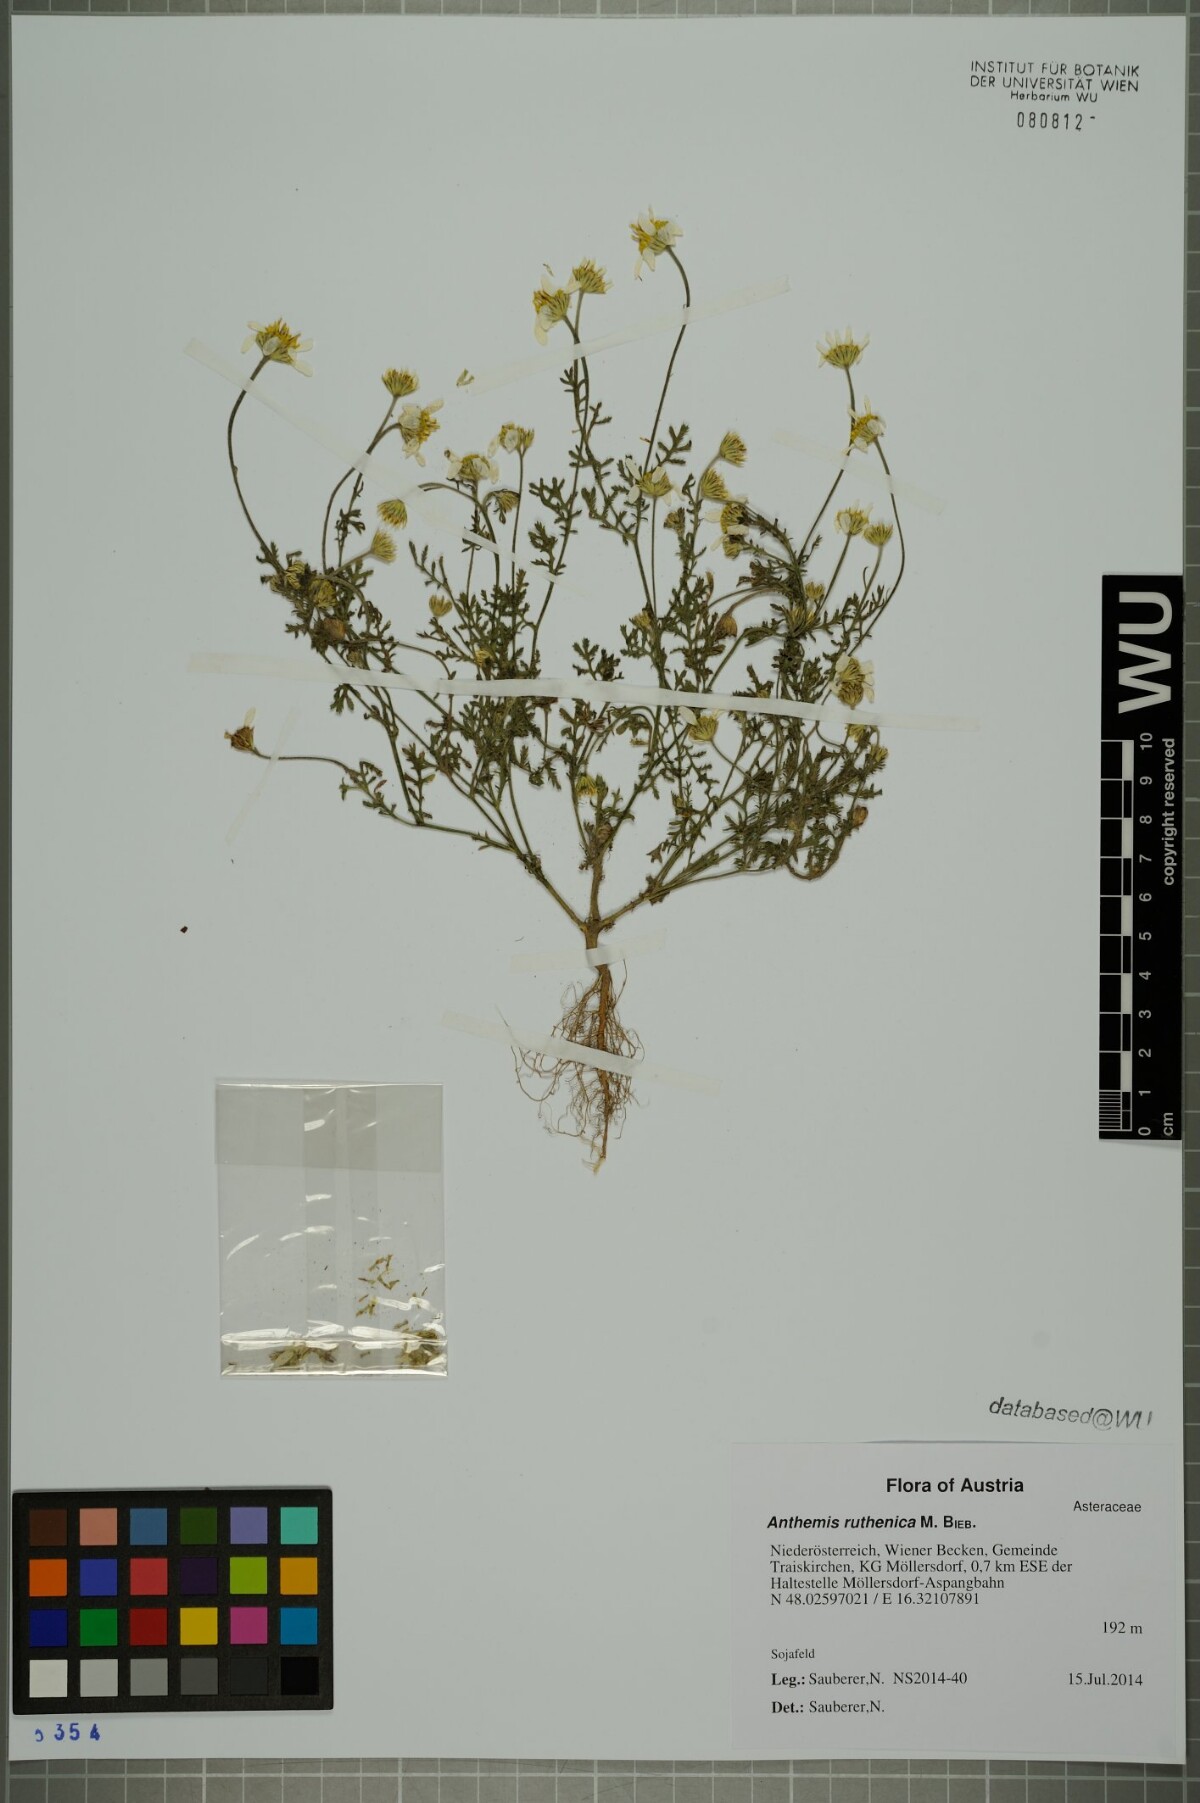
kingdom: Plantae
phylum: Tracheophyta
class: Magnoliopsida
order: Asterales
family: Asteraceae
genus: Anthemis
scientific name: Anthemis ruthenica
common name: Eastern chamomile
